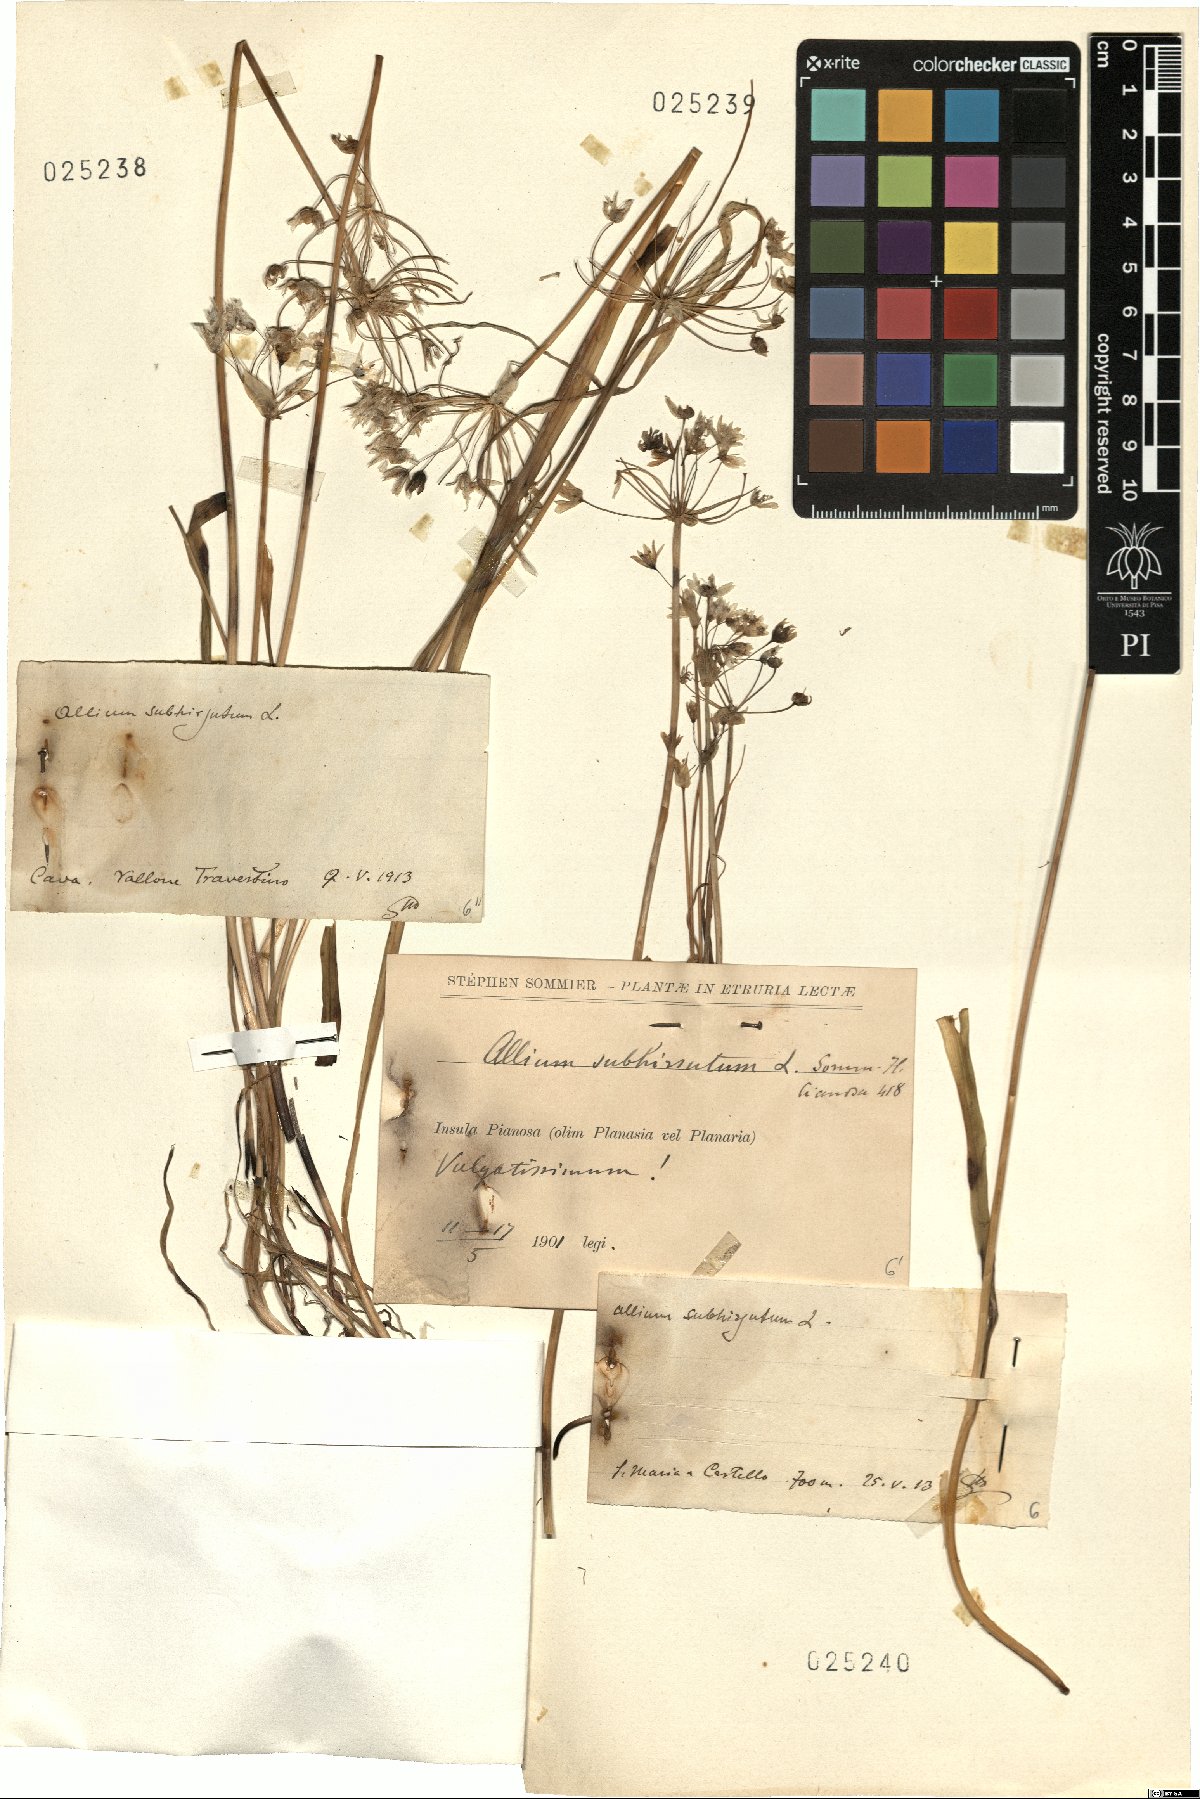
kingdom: Plantae
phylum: Tracheophyta
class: Liliopsida
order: Asparagales
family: Amaryllidaceae
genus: Allium
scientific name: Allium subhirsutum
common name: Hairy garlic
